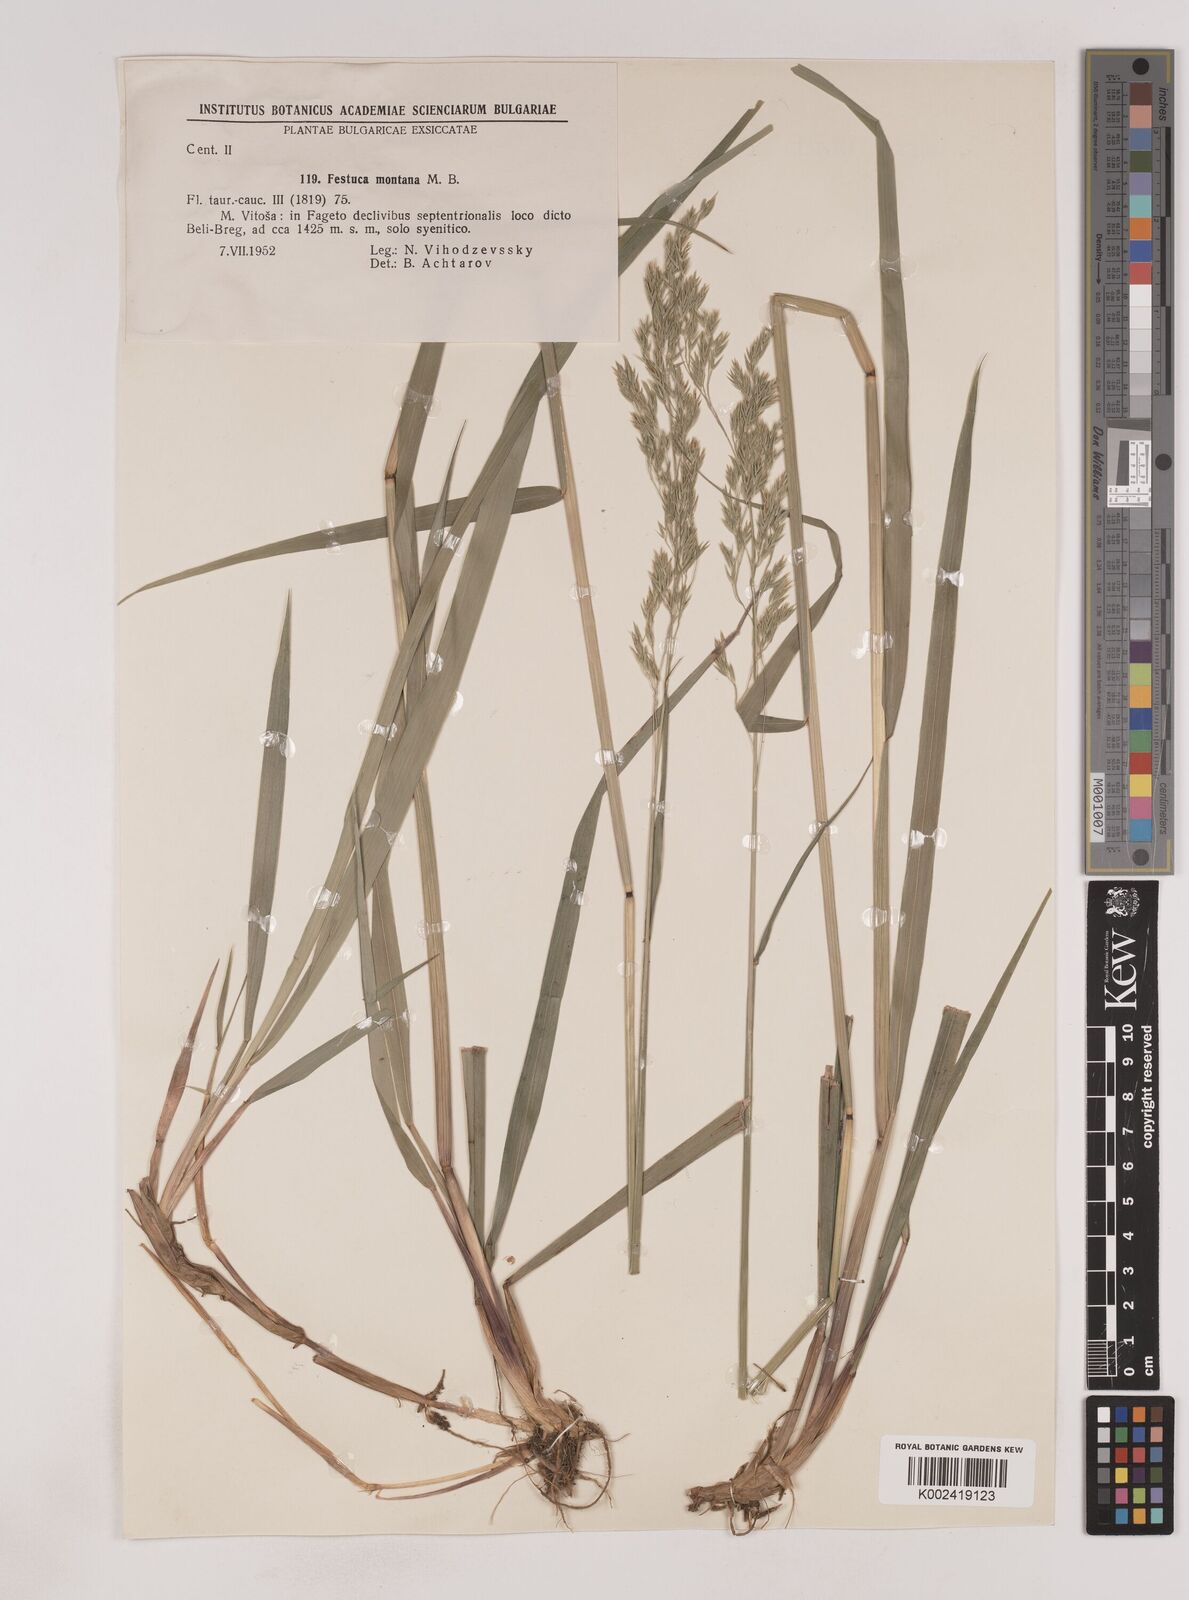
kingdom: Plantae
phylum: Tracheophyta
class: Liliopsida
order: Poales
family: Poaceae
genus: Festuca
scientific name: Festuca drymeja
